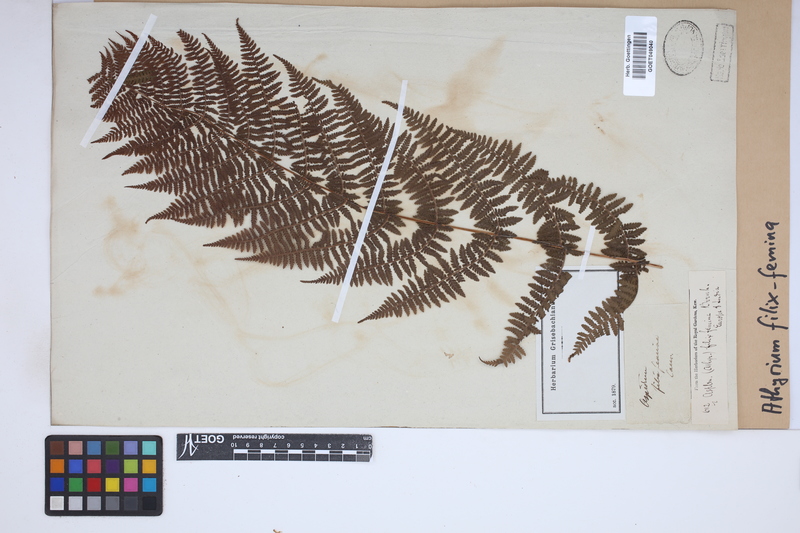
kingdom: Plantae
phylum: Tracheophyta
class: Polypodiopsida
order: Polypodiales
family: Athyriaceae
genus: Athyrium
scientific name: Athyrium filix-femina
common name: Lady fern
